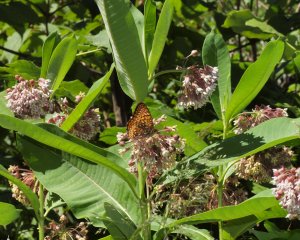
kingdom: Animalia
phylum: Arthropoda
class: Insecta
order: Lepidoptera
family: Nymphalidae
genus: Speyeria
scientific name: Speyeria atlantis
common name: Atlantis Fritillary
